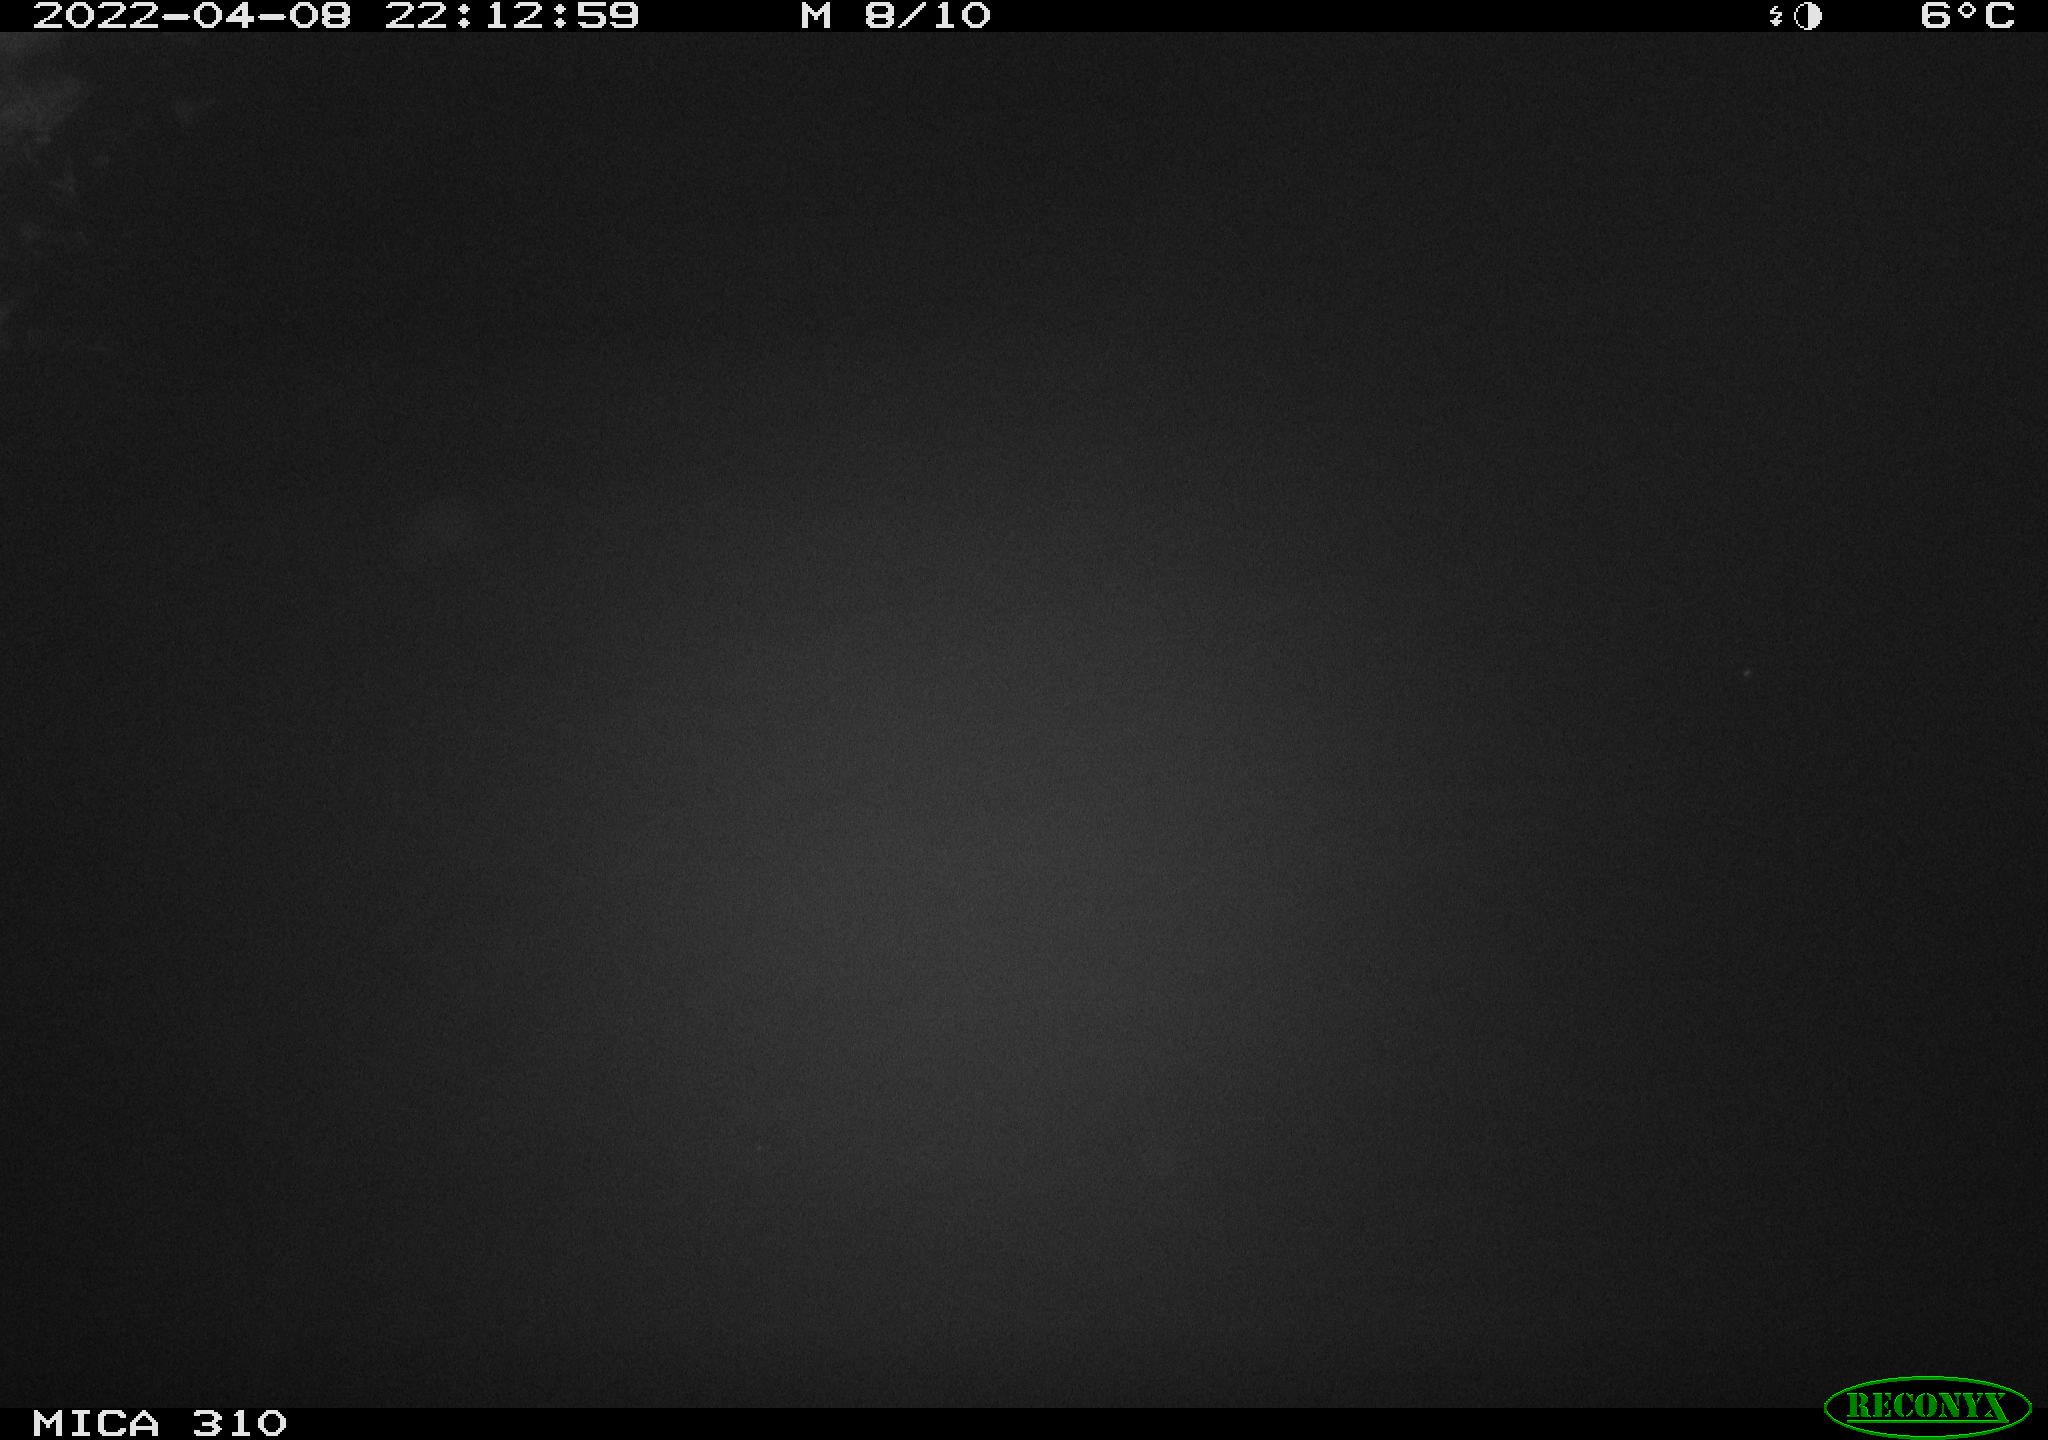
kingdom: Animalia
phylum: Chordata
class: Mammalia
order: Rodentia
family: Cricetidae
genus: Ondatra
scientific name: Ondatra zibethicus
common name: Muskrat
